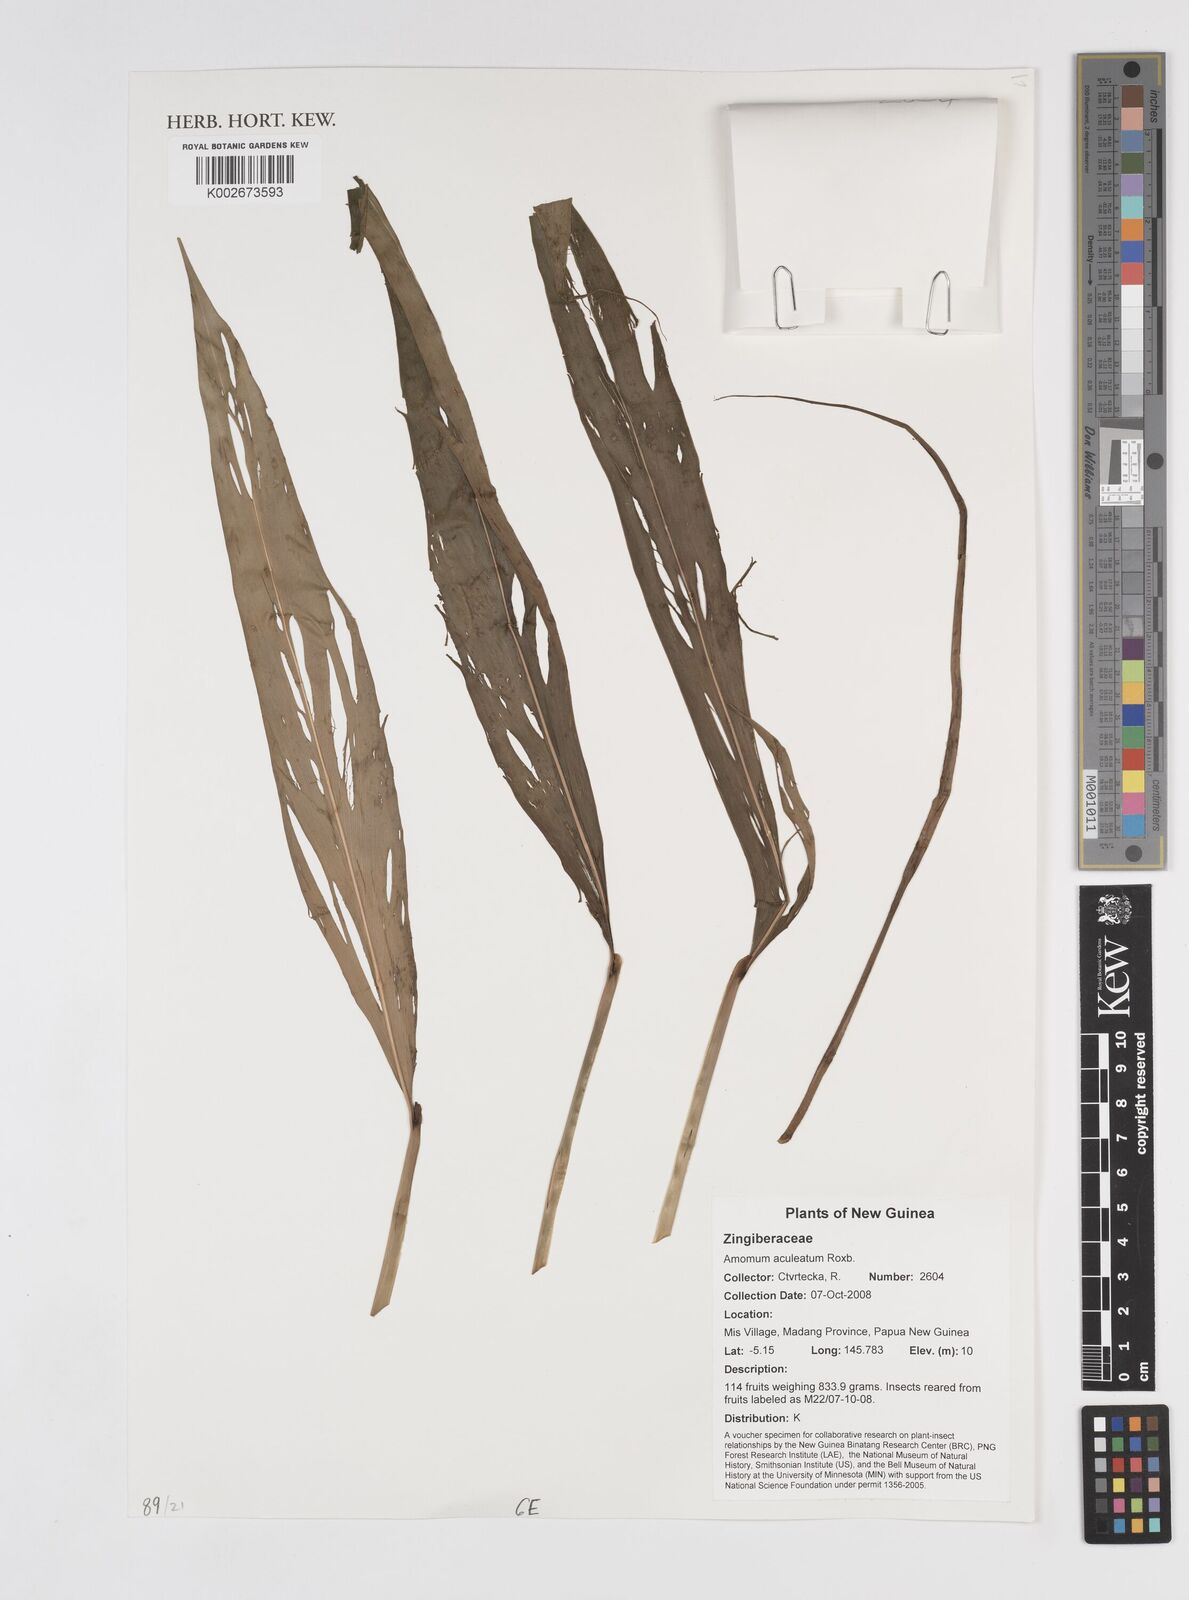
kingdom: Plantae
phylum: Tracheophyta
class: Liliopsida
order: Zingiberales
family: Zingiberaceae
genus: Meistera
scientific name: Meistera aculeata
